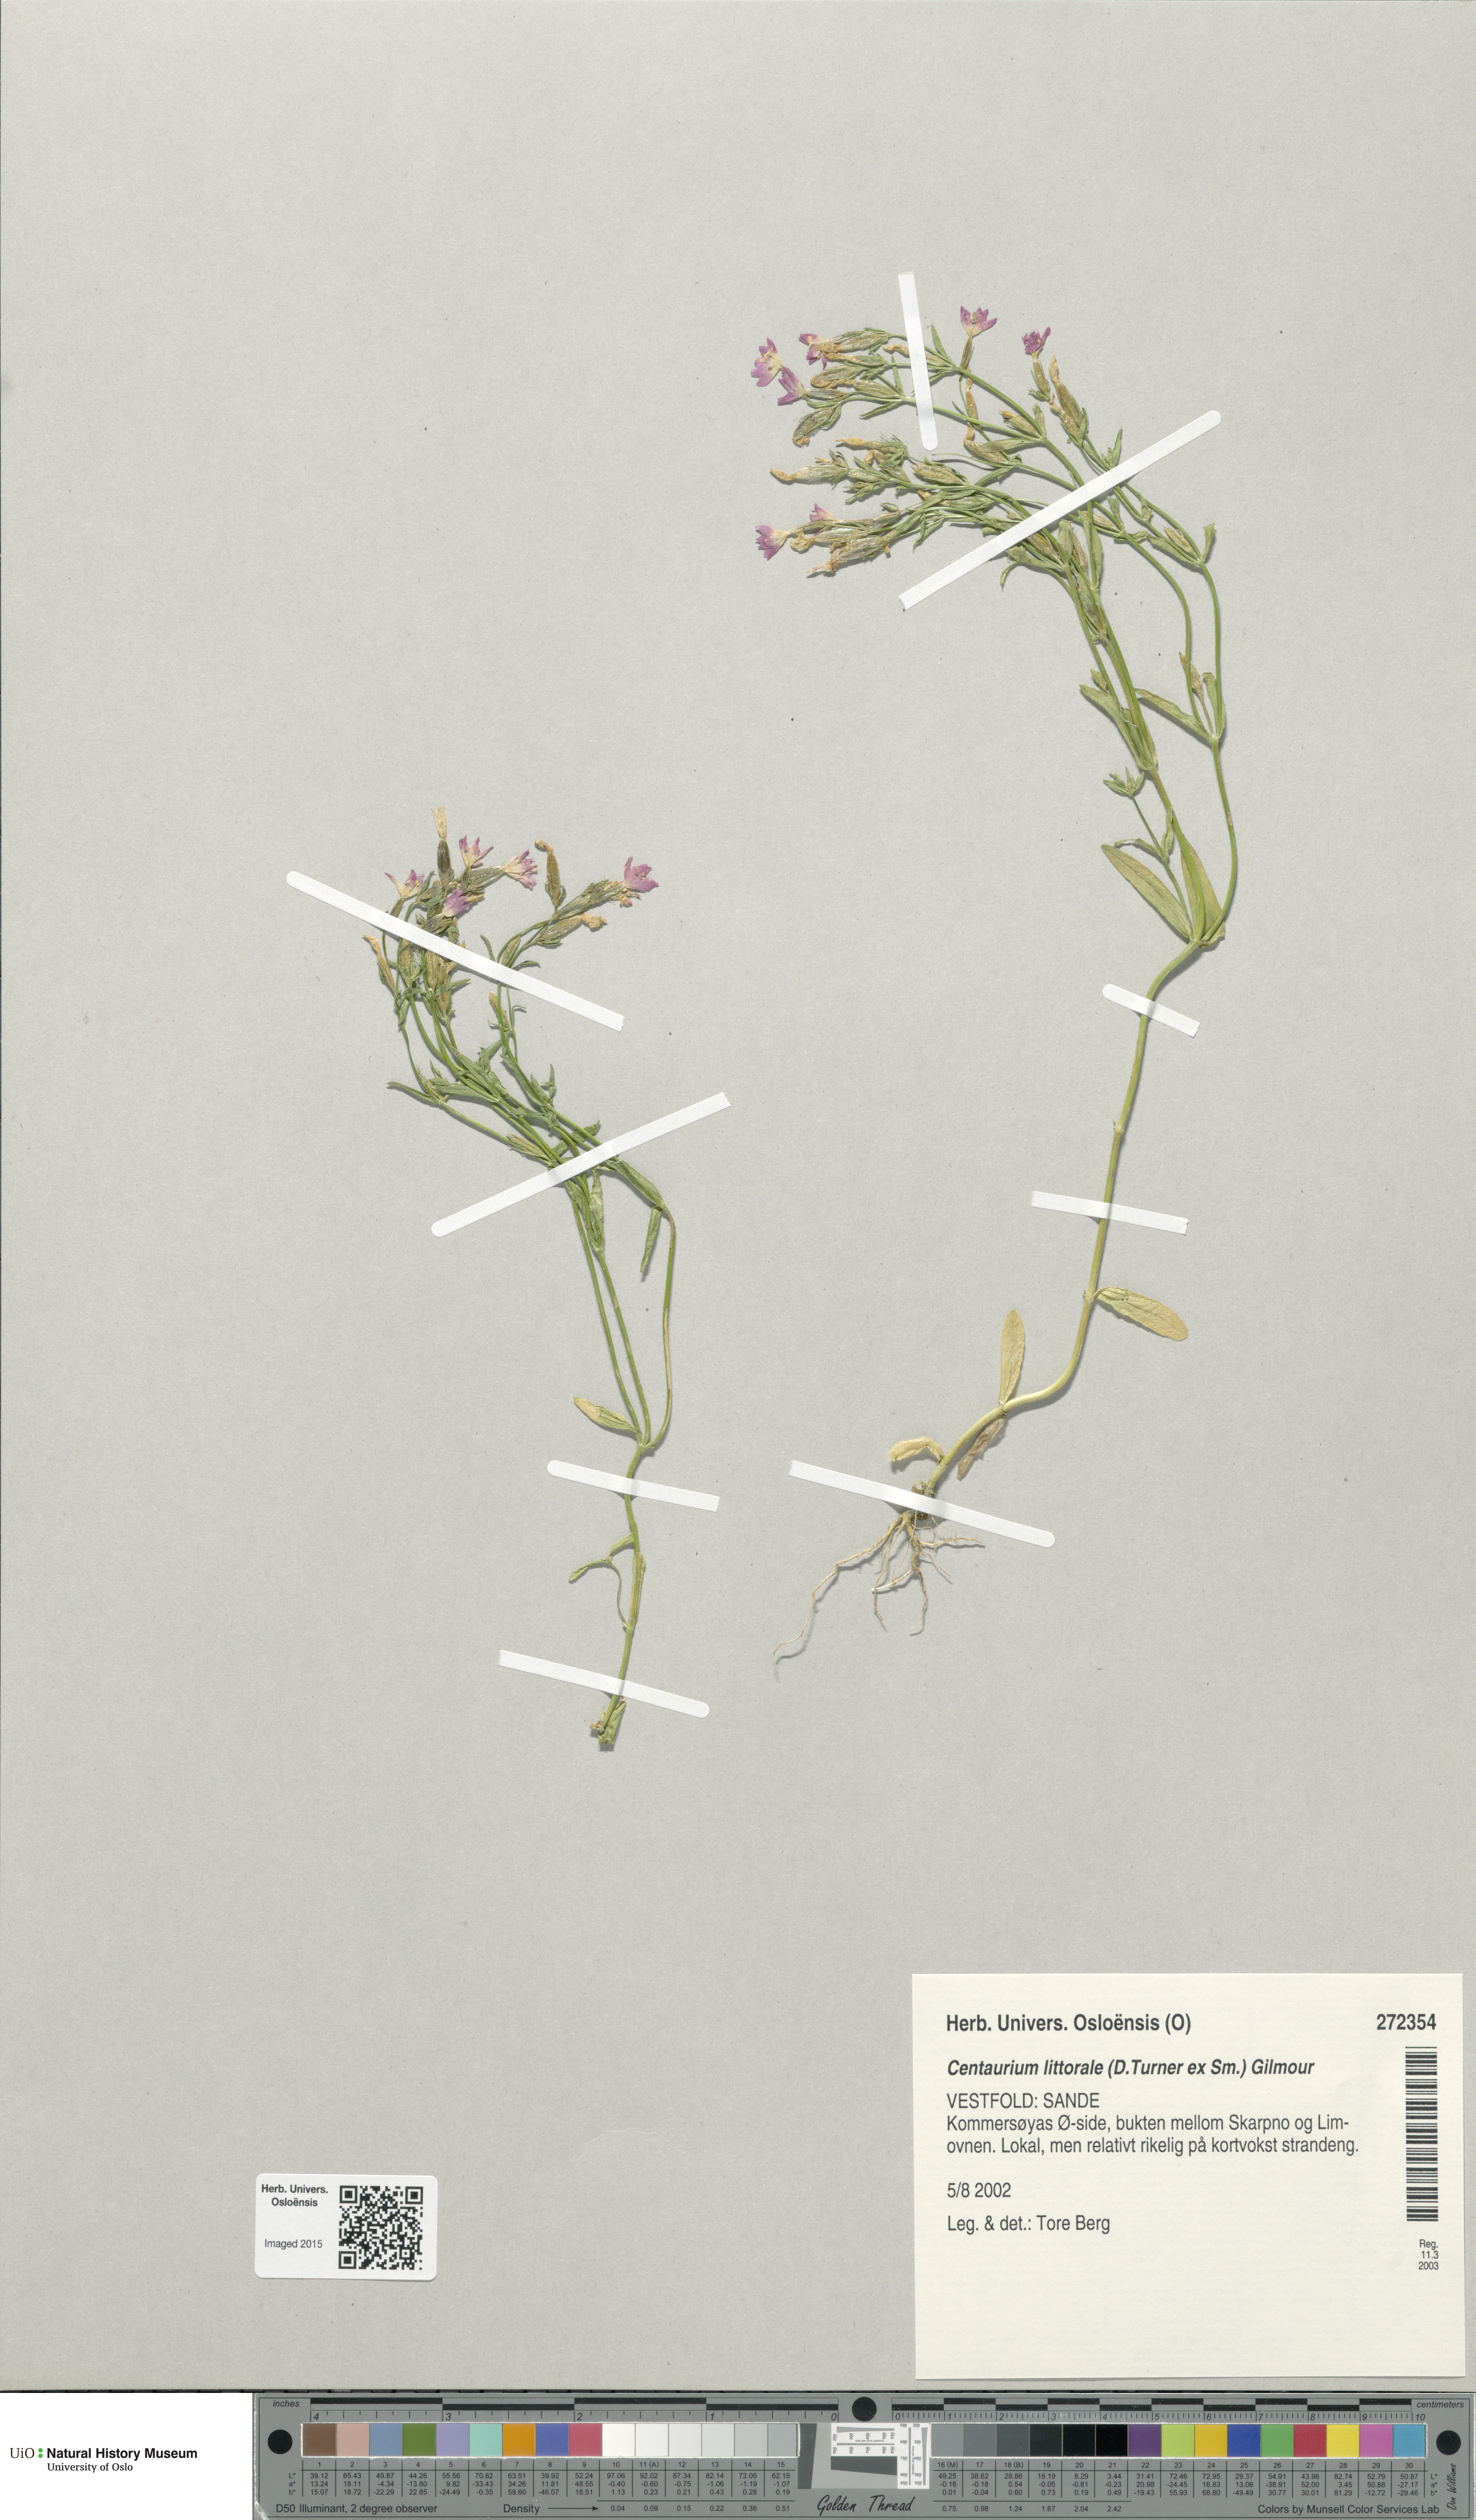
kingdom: Plantae
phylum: Tracheophyta
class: Magnoliopsida
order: Gentianales
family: Gentianaceae
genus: Centaurium
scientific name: Centaurium littorale
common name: Seaside centaury
